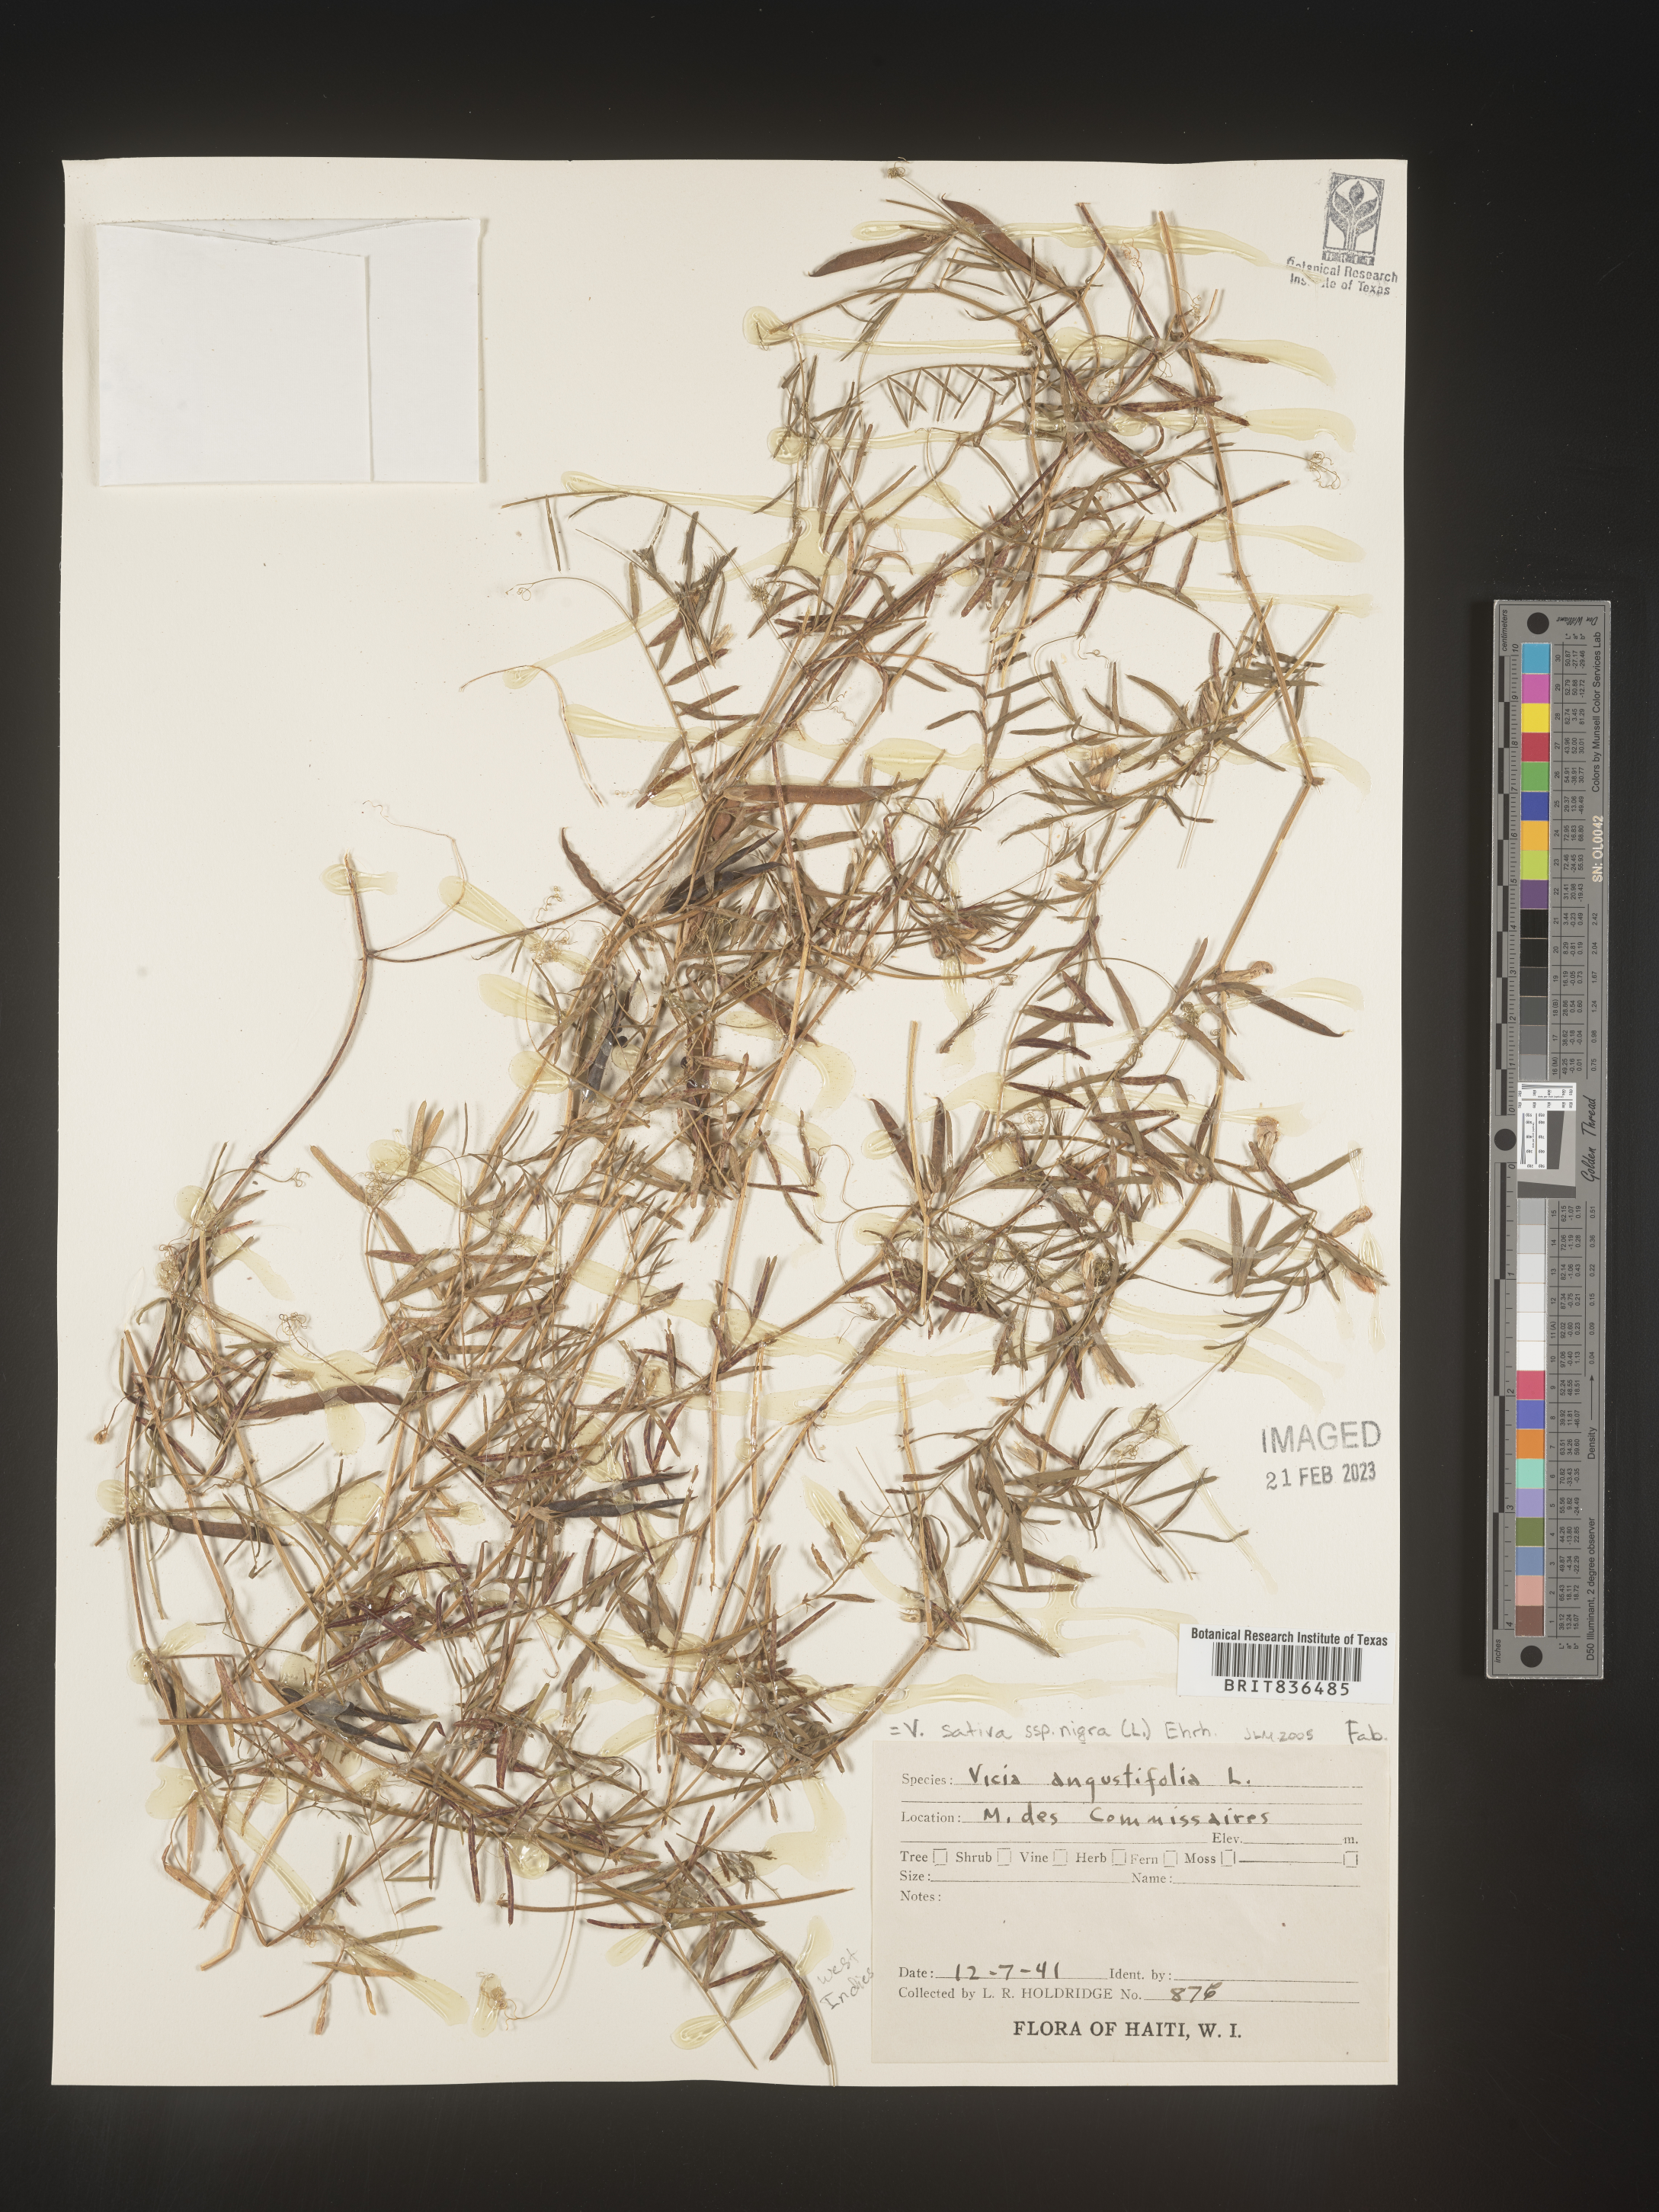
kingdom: Plantae
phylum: Tracheophyta
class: Magnoliopsida
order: Fabales
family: Fabaceae
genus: Vicia
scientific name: Vicia
